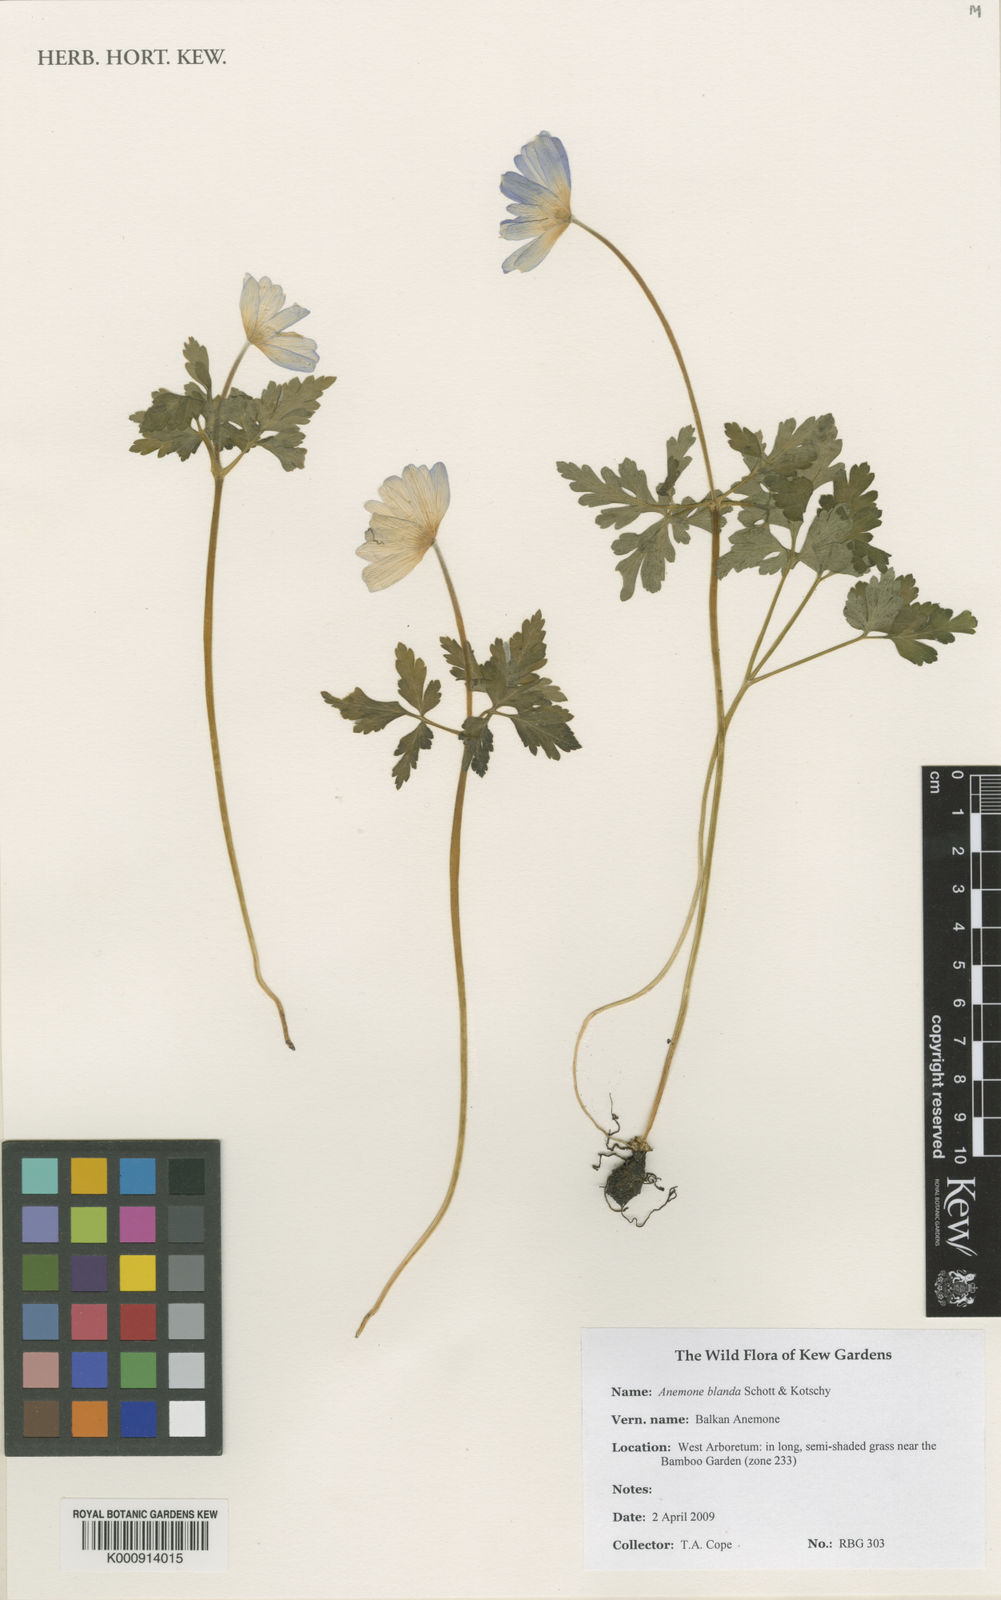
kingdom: Plantae
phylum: Tracheophyta
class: Magnoliopsida
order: Ranunculales
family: Ranunculaceae
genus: Anemone
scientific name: Anemone blanda
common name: Balkan anemone
